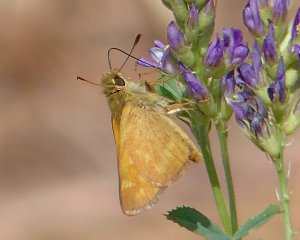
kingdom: Animalia
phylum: Arthropoda
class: Insecta
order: Lepidoptera
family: Hesperiidae
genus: Ochlodes
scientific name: Ochlodes sylvanoides
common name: Woodland Skipper
